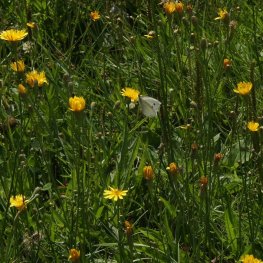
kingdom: Animalia
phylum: Arthropoda
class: Insecta
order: Lepidoptera
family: Pieridae
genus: Pieris
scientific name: Pieris rapae
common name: Cabbage White
